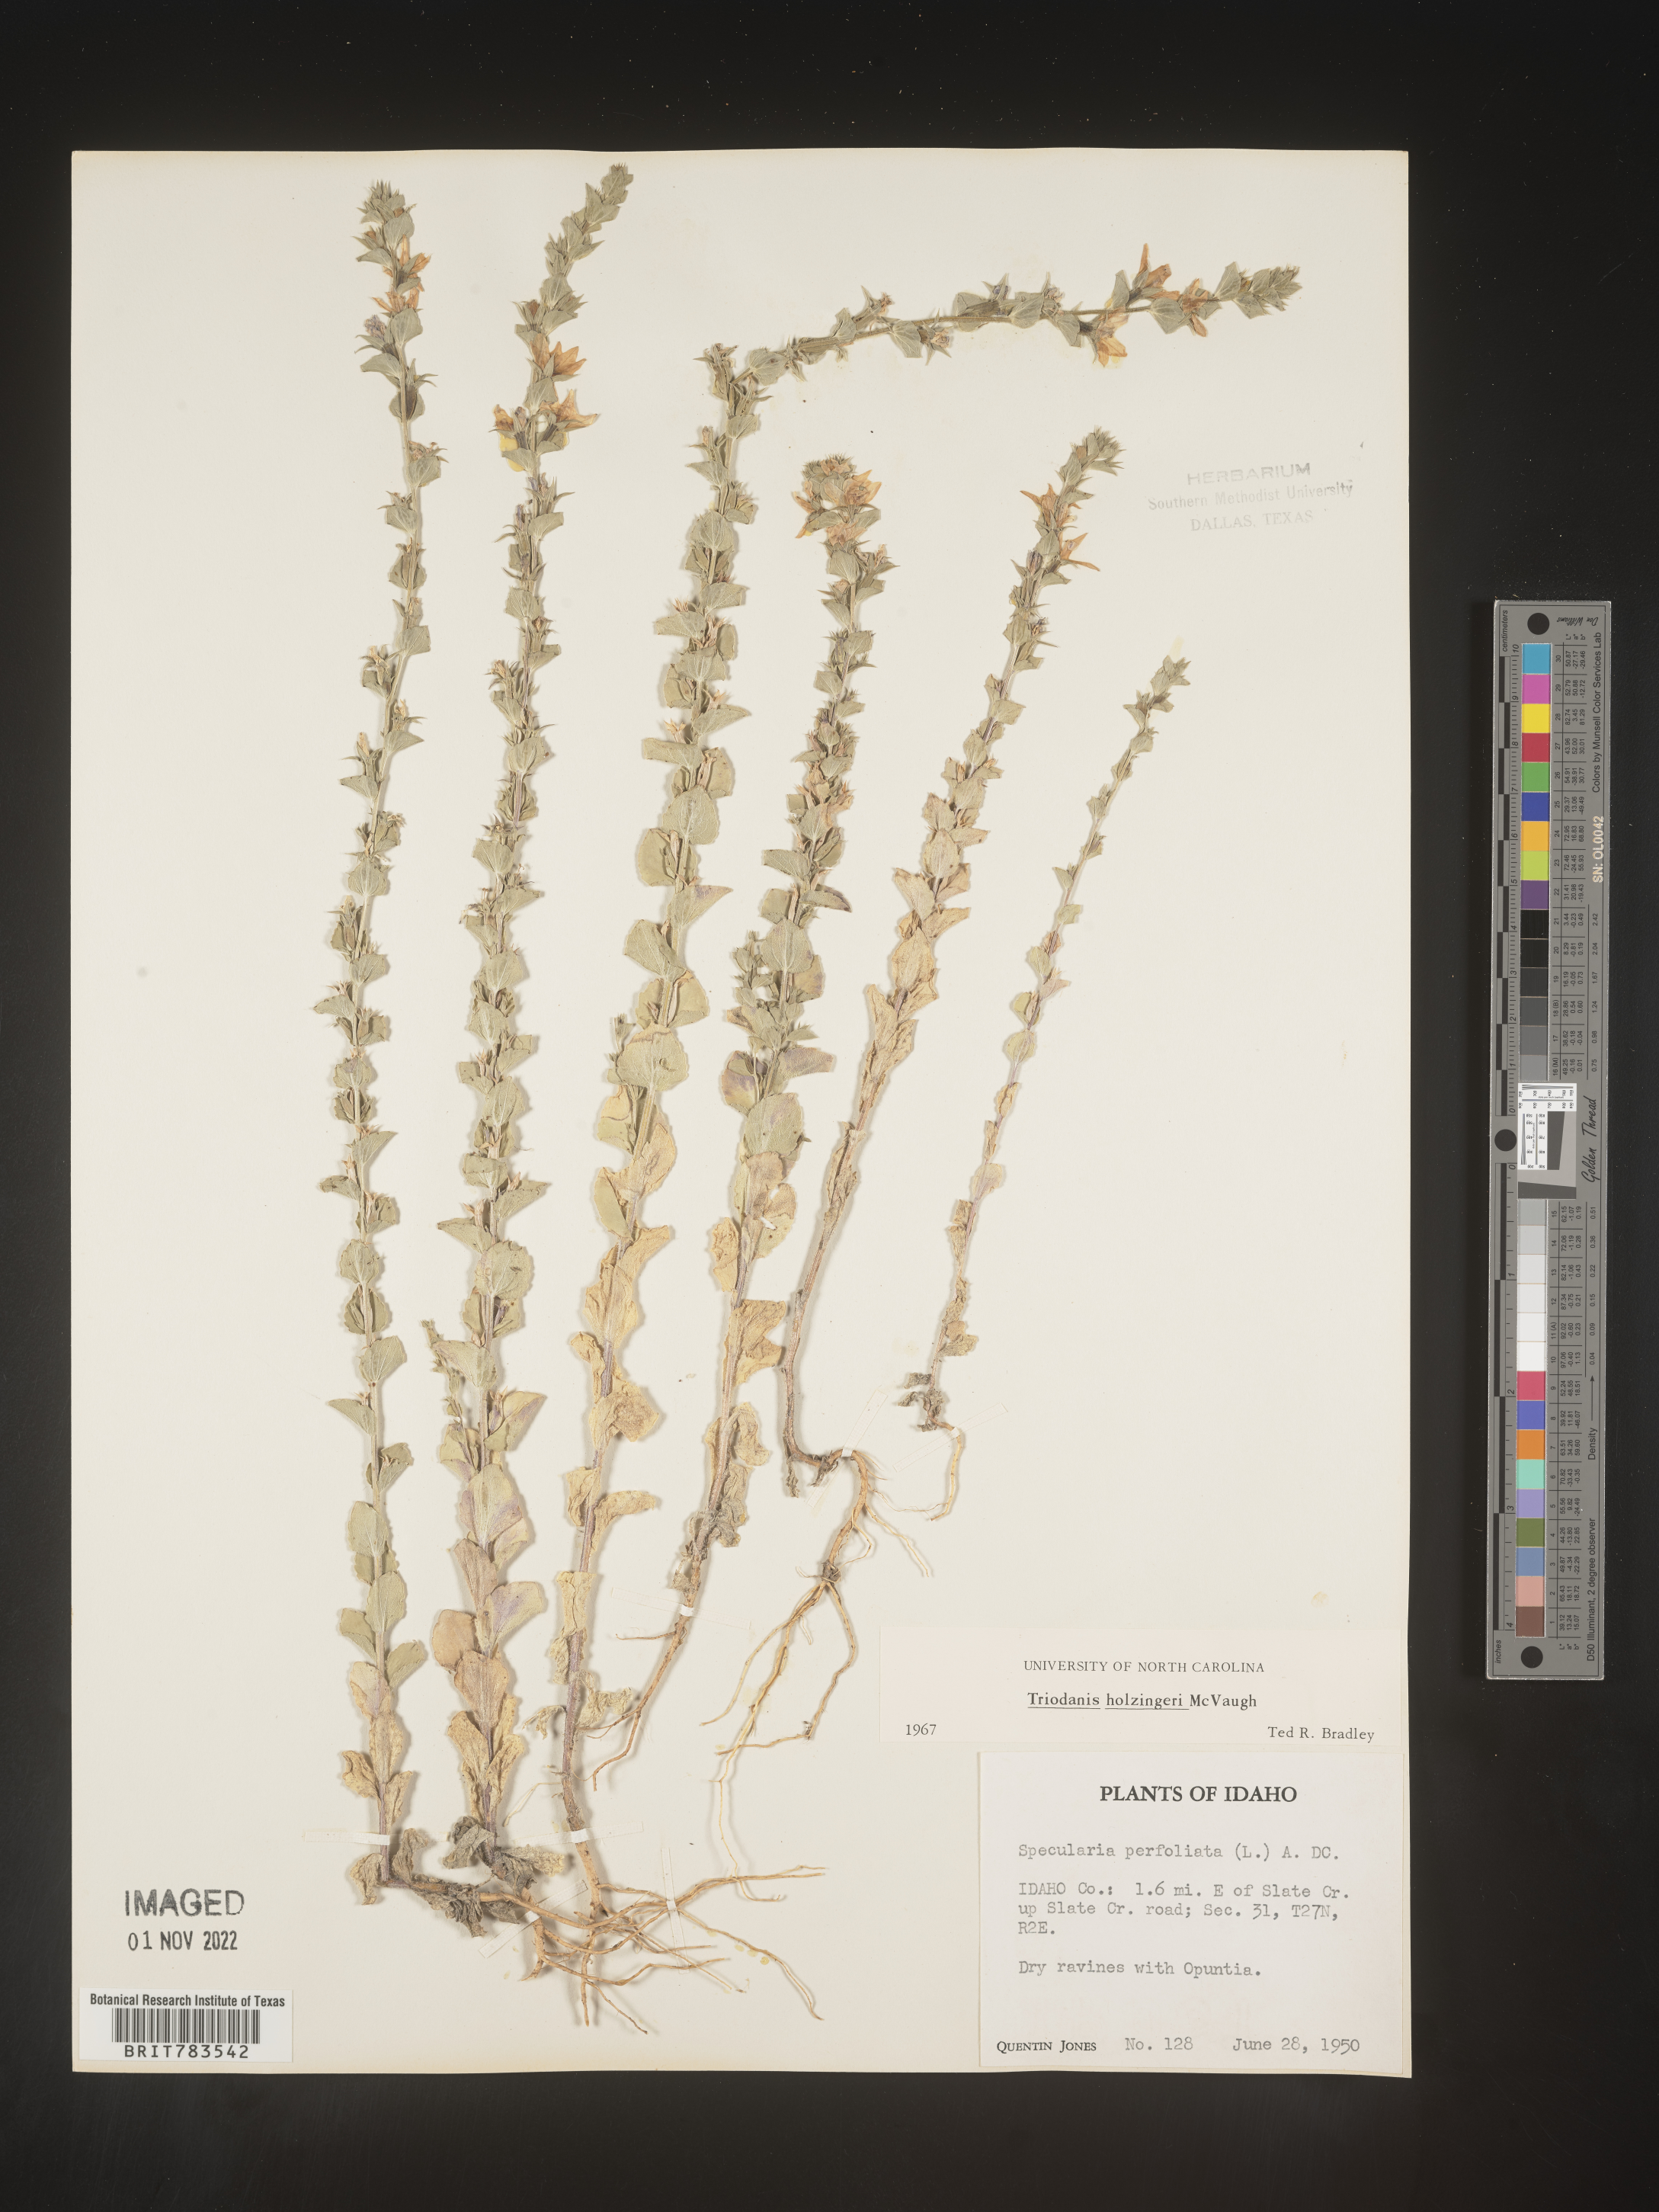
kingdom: Plantae
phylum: Tracheophyta
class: Magnoliopsida
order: Asterales
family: Campanulaceae
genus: Triodanis
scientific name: Triodanis holzingeri
